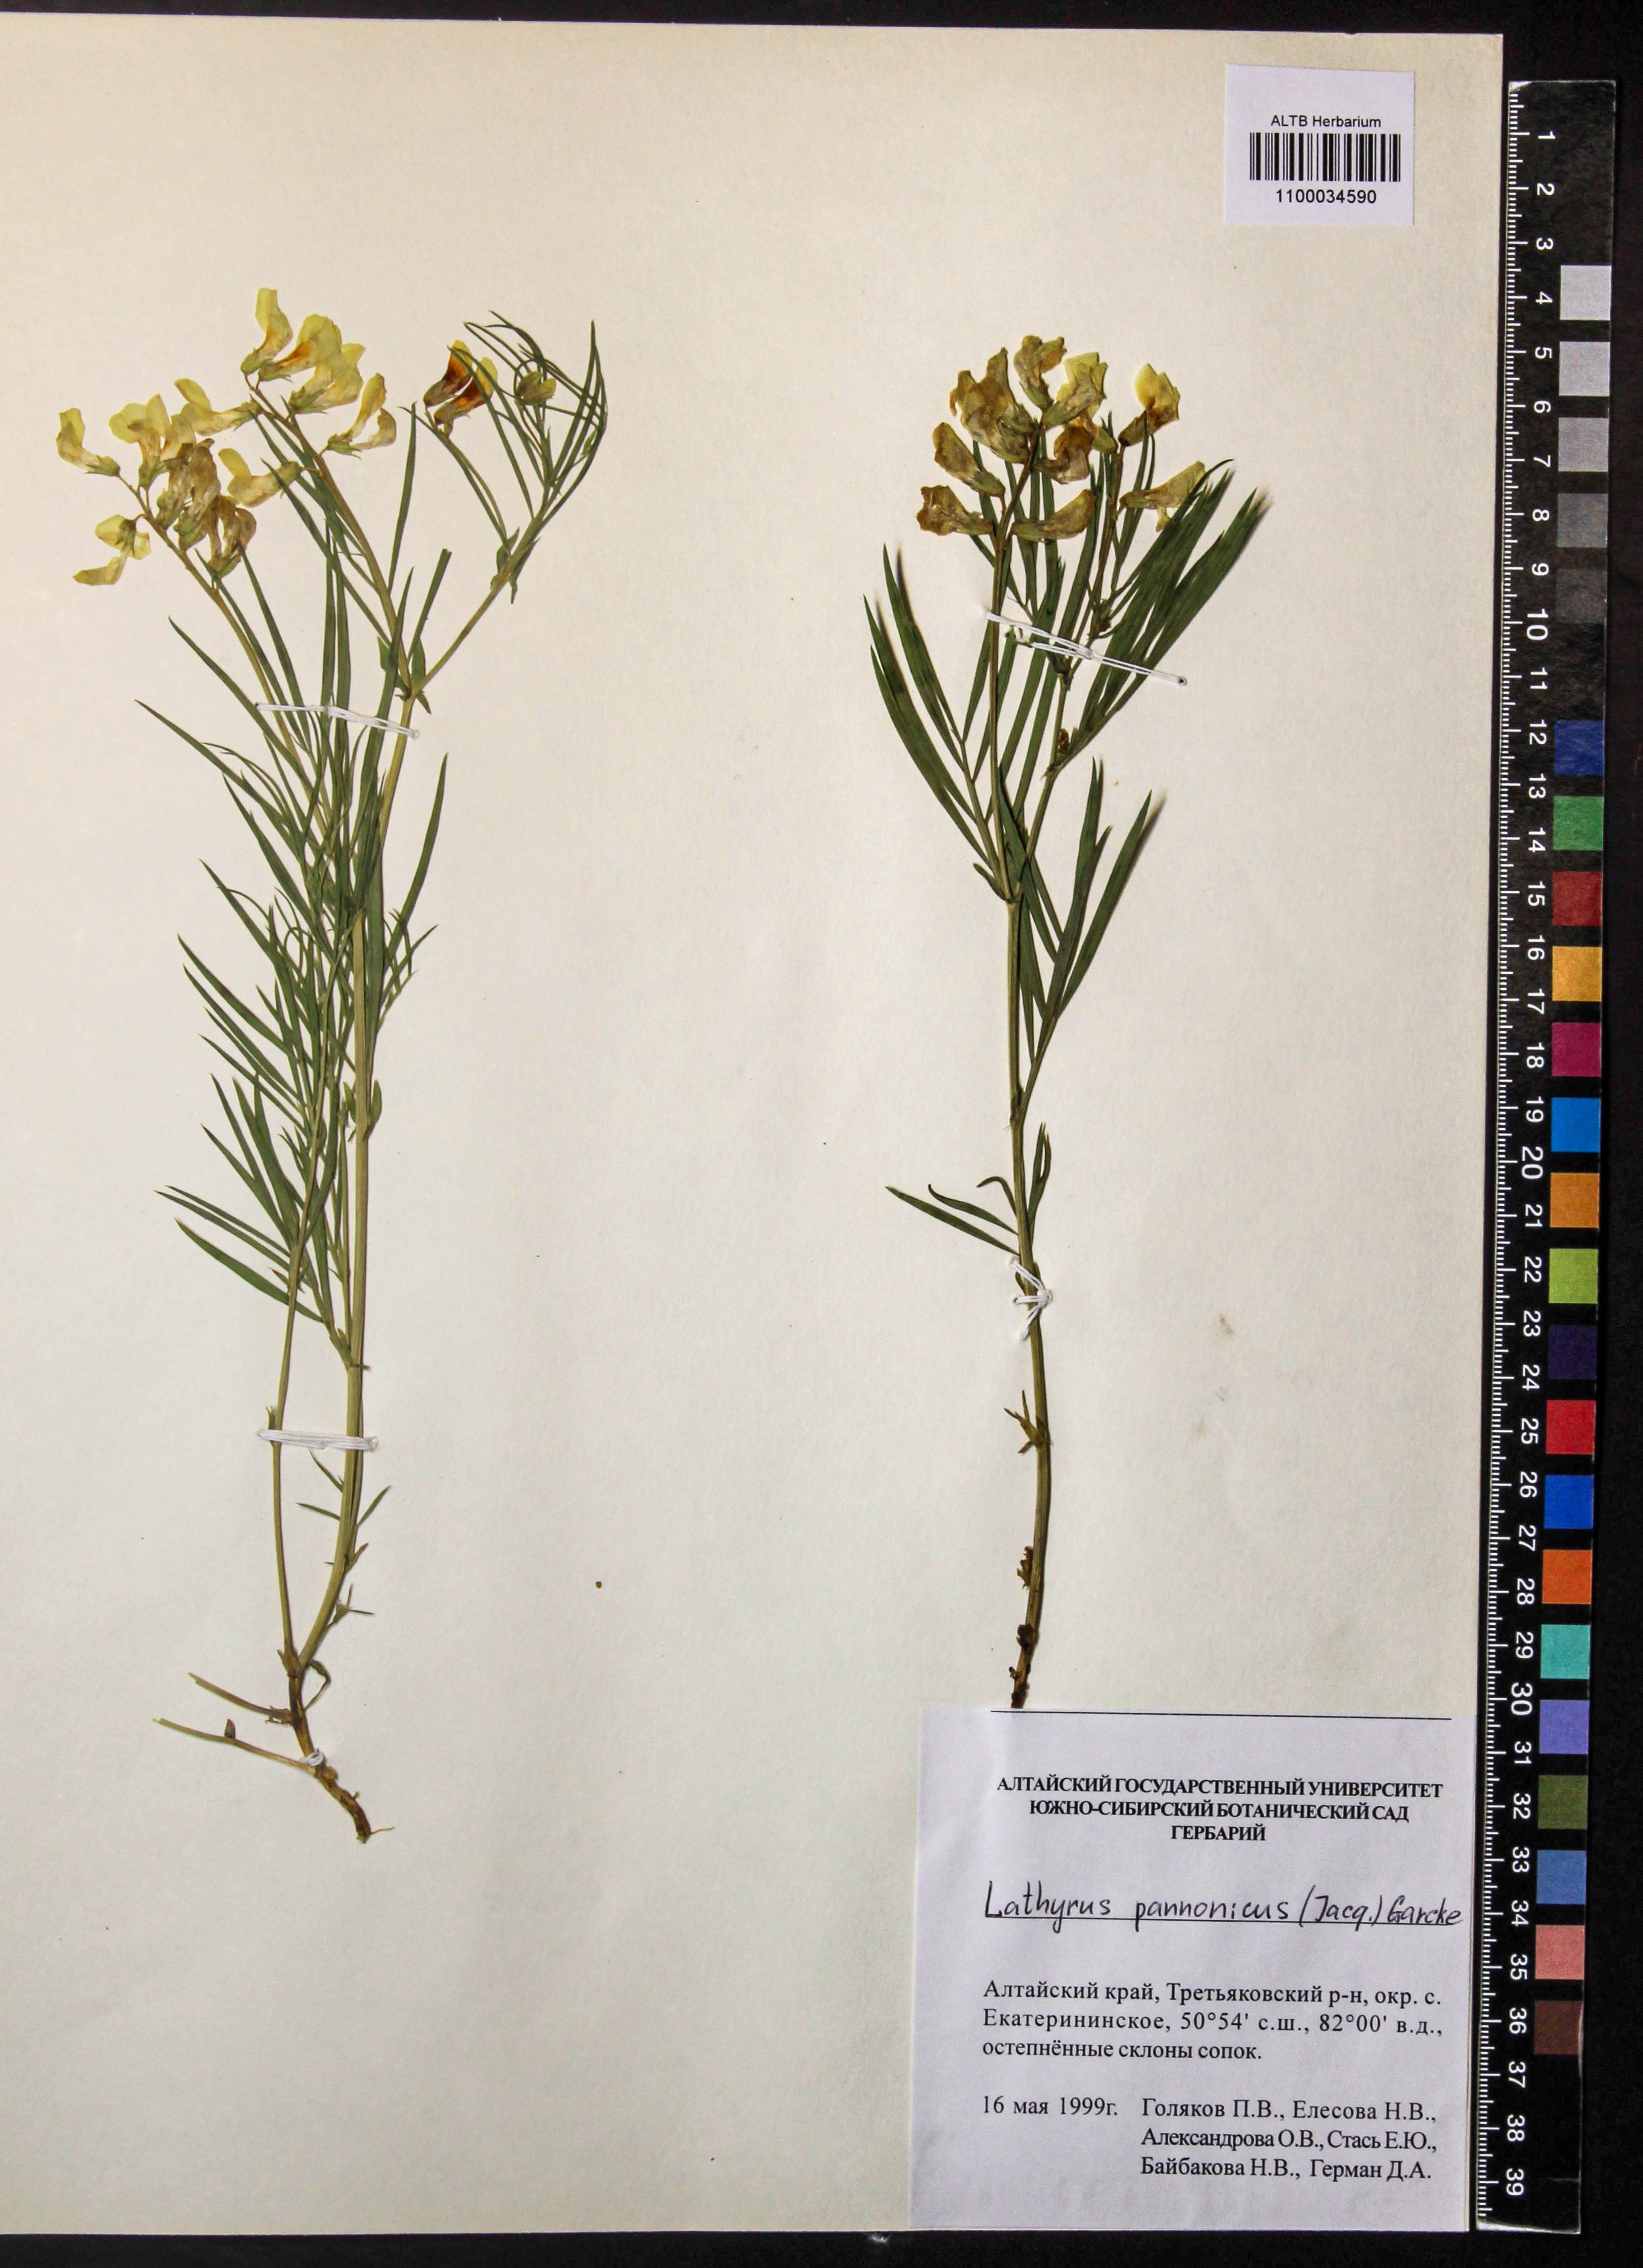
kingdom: Plantae
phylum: Tracheophyta
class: Magnoliopsida
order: Fabales
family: Fabaceae
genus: Lathyrus
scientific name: Lathyrus pannonicus
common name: Pea
